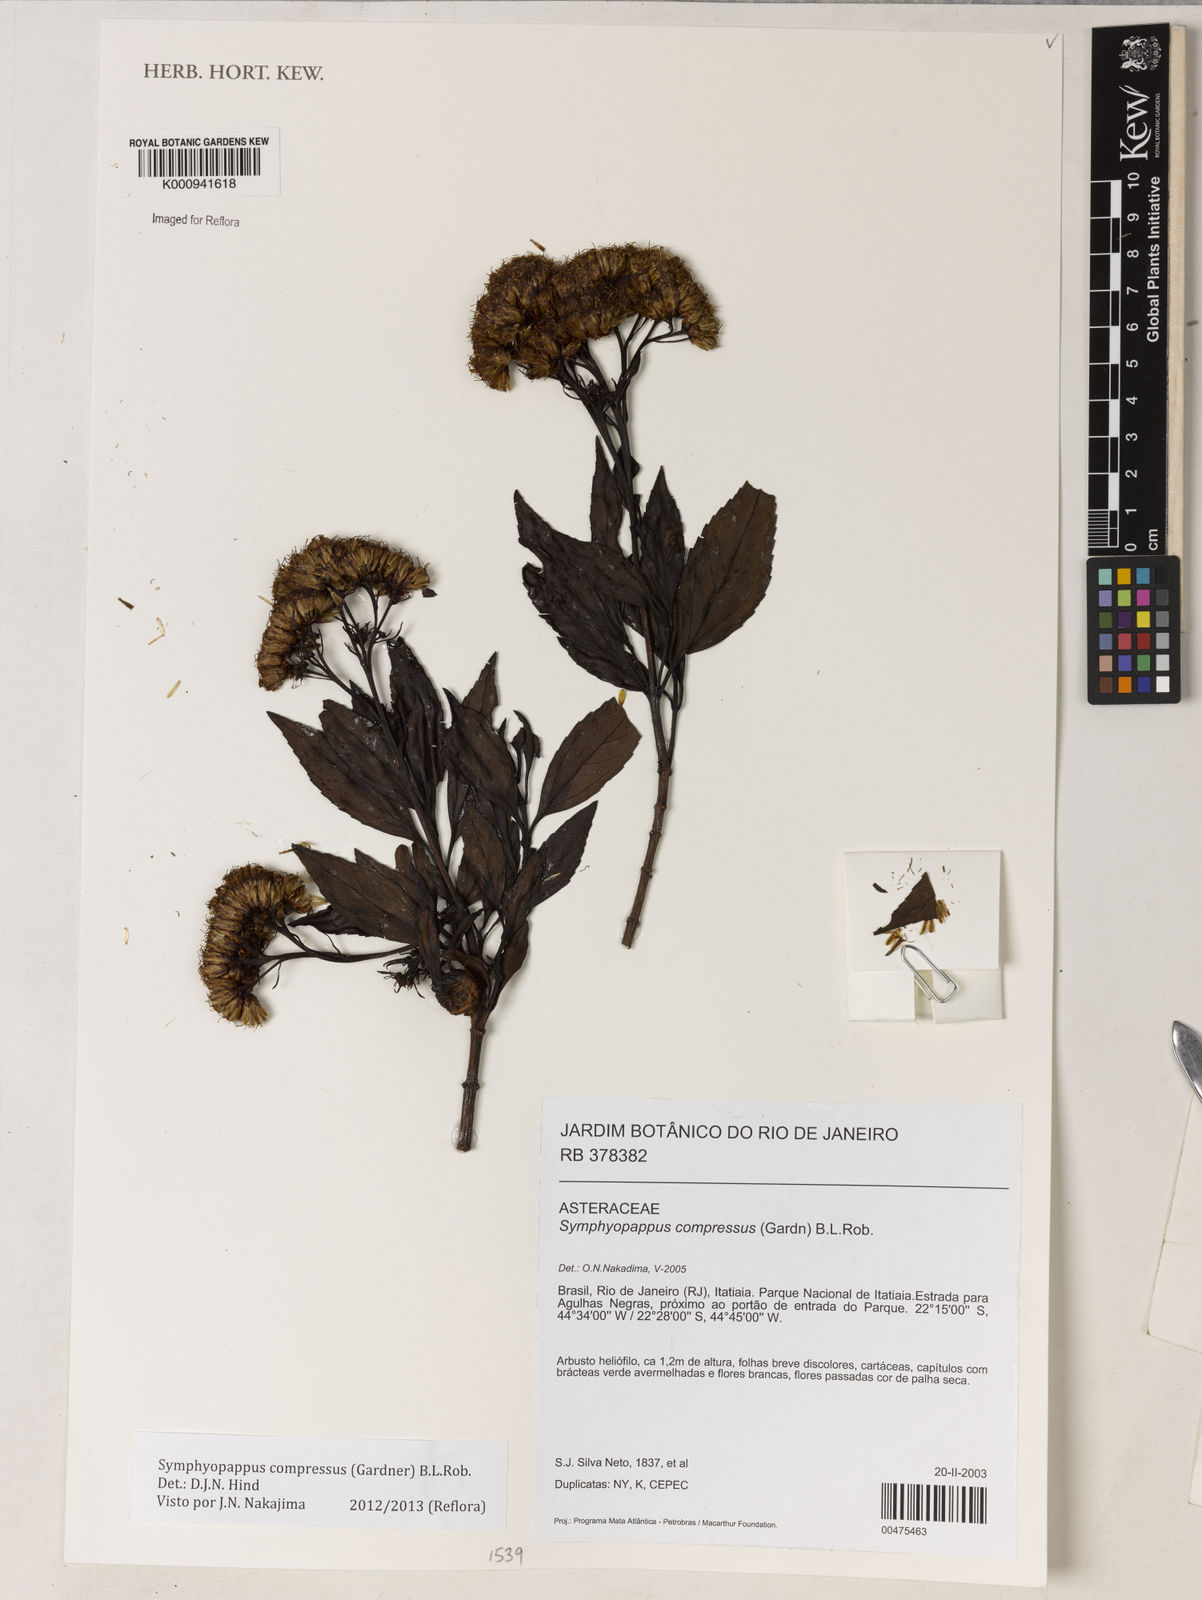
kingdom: Plantae
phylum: Tracheophyta
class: Magnoliopsida
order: Asterales
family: Asteraceae
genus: Symphyopappus
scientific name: Symphyopappus compressus
